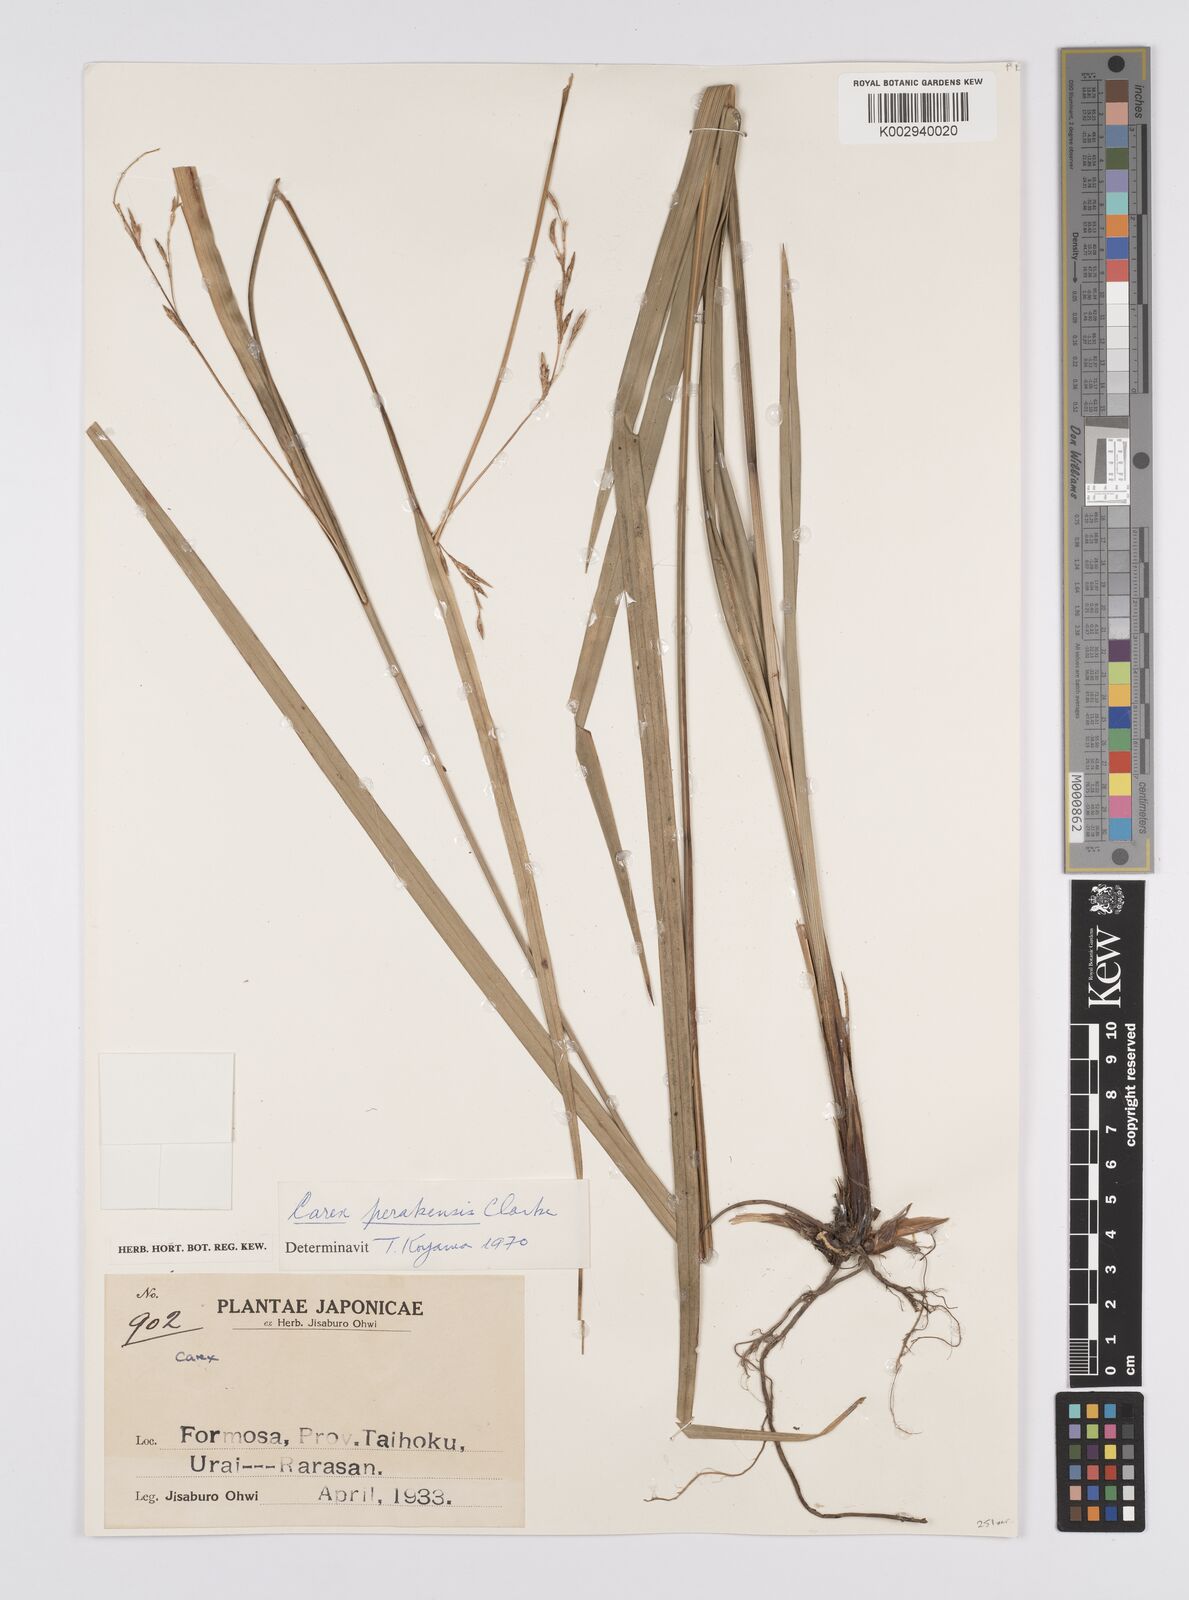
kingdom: Plantae
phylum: Tracheophyta
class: Liliopsida
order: Poales
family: Cyperaceae
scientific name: Cyperaceae
